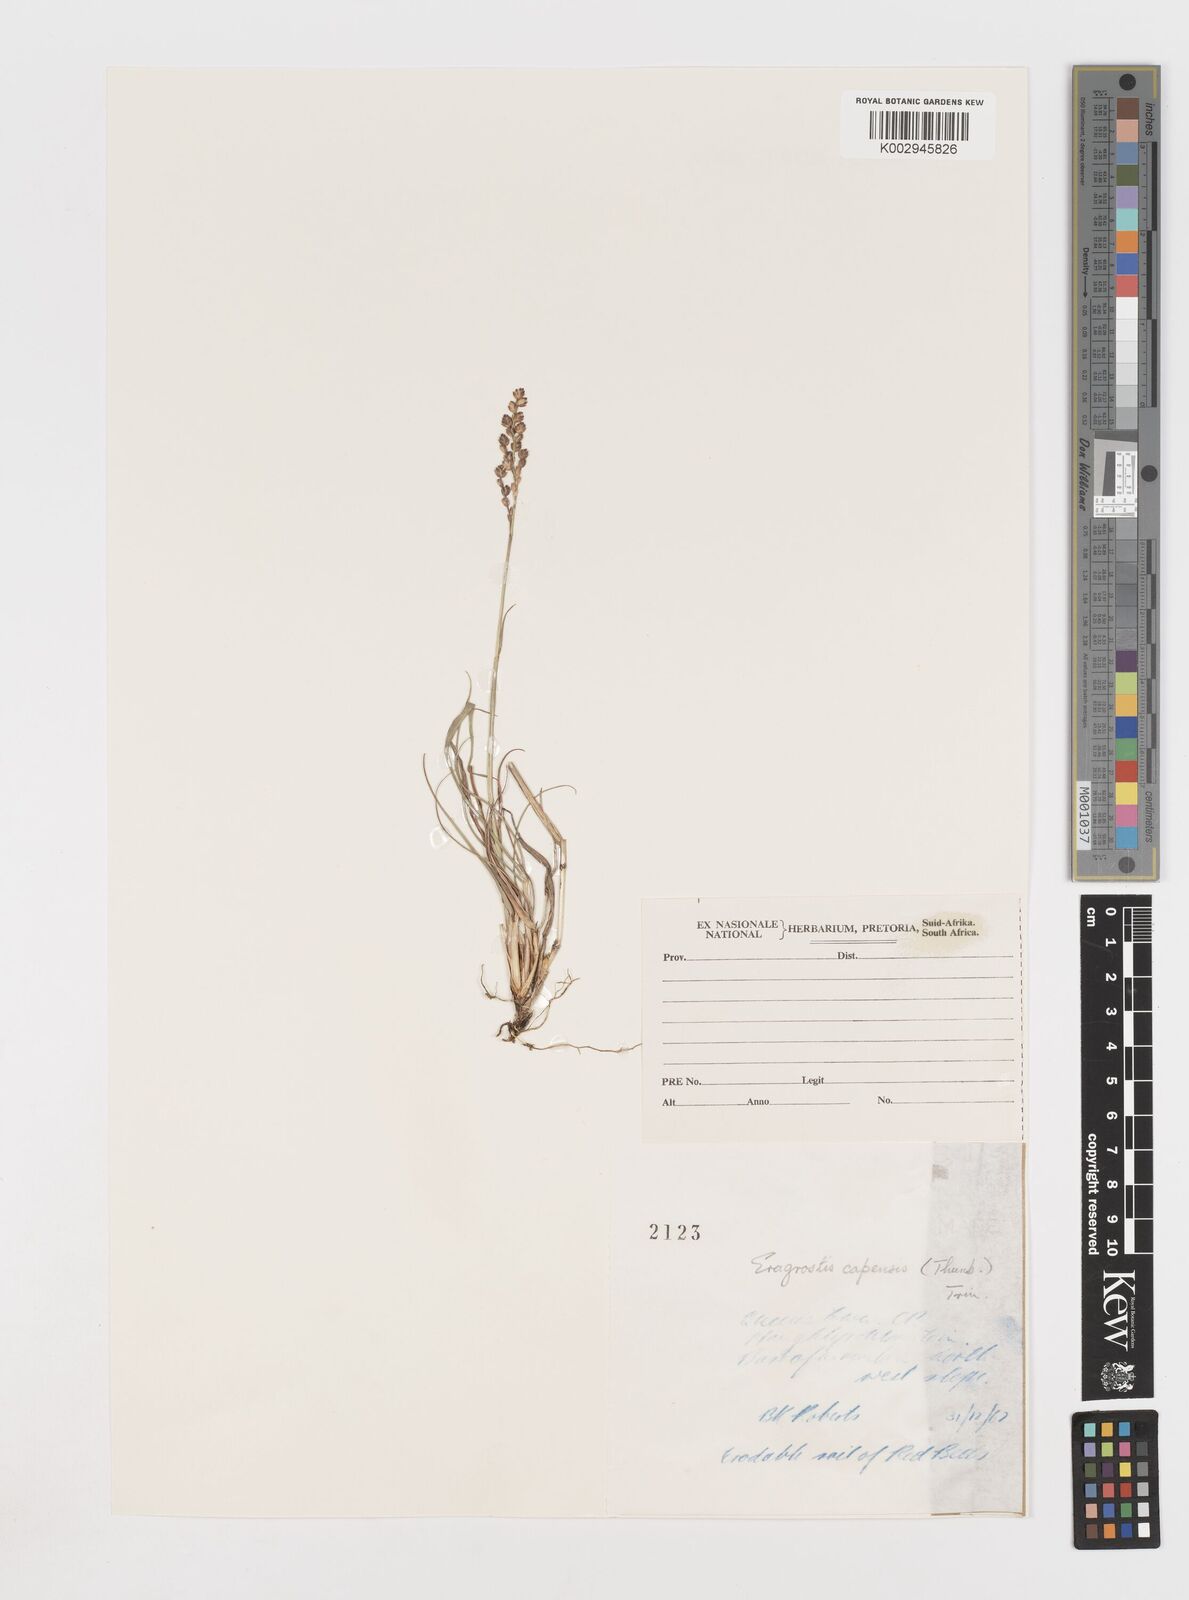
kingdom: Plantae
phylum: Tracheophyta
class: Liliopsida
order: Poales
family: Poaceae
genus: Eragrostis
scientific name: Eragrostis capensis
